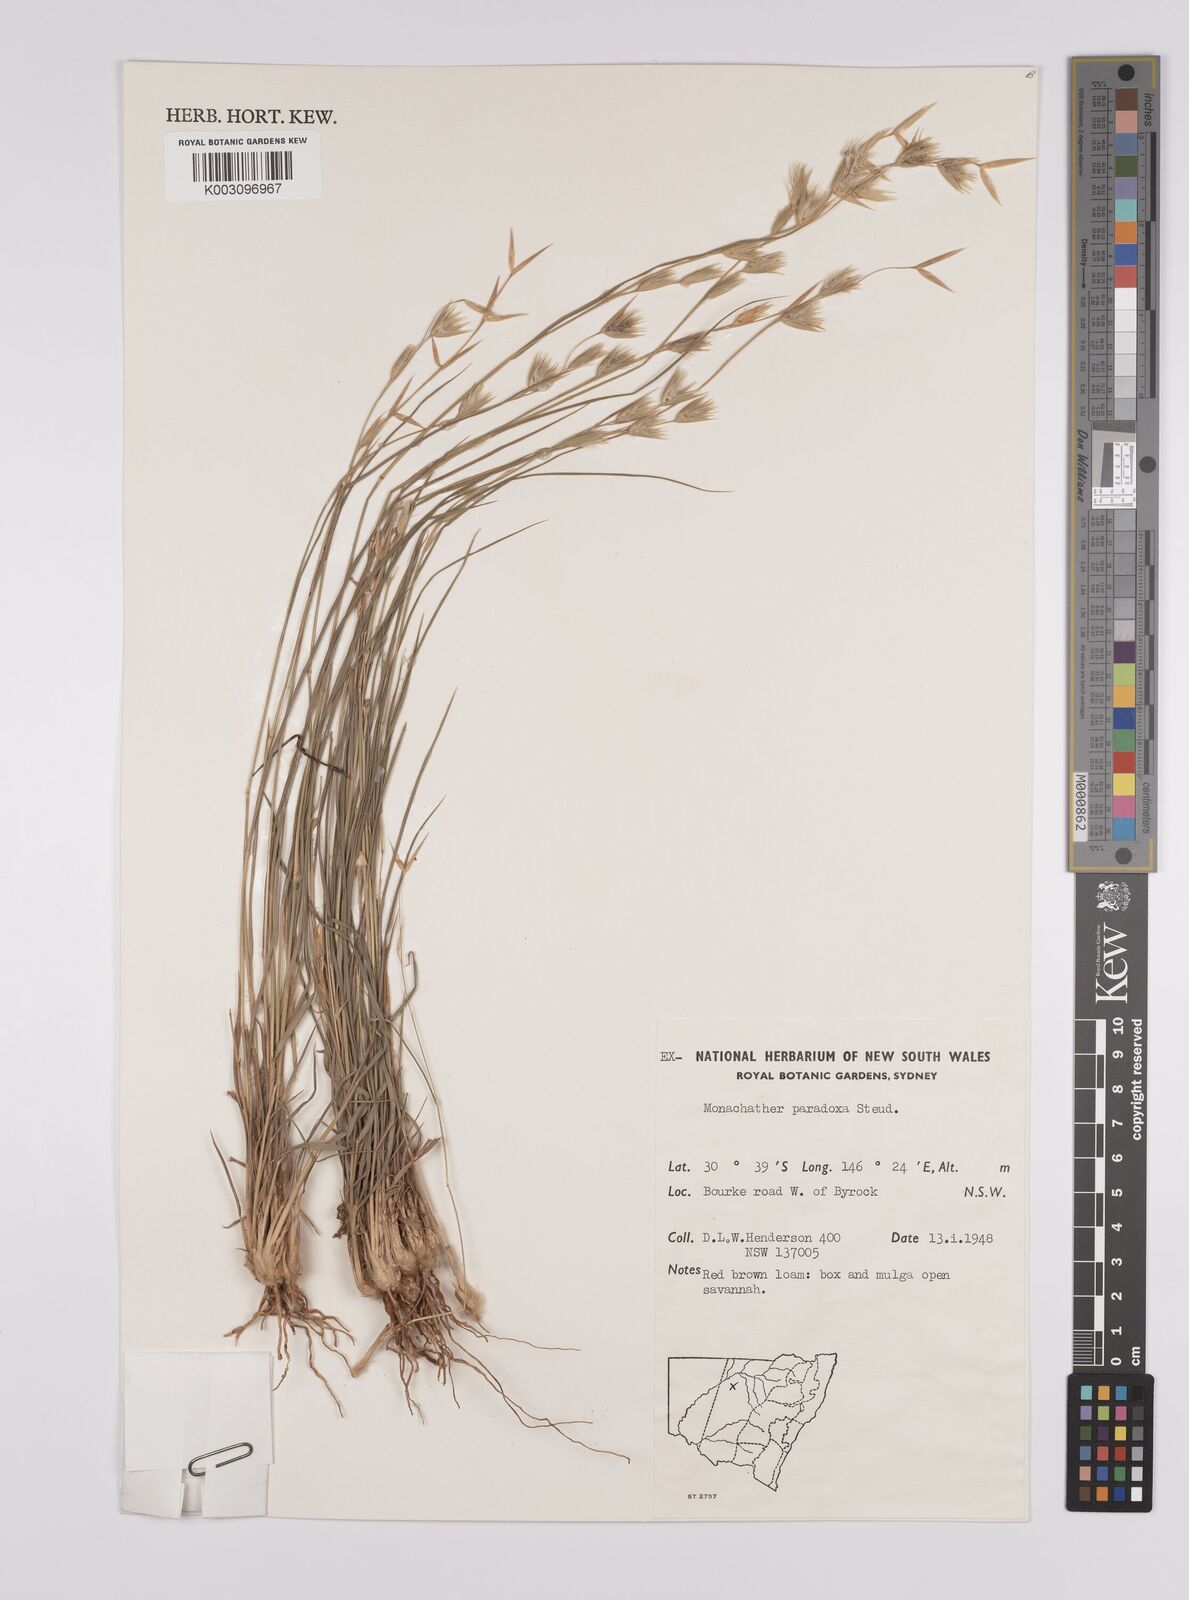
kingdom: Plantae
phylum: Tracheophyta
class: Liliopsida
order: Poales
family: Poaceae
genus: Monachather
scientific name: Monachather paradoxus
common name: Bandicoot grass
